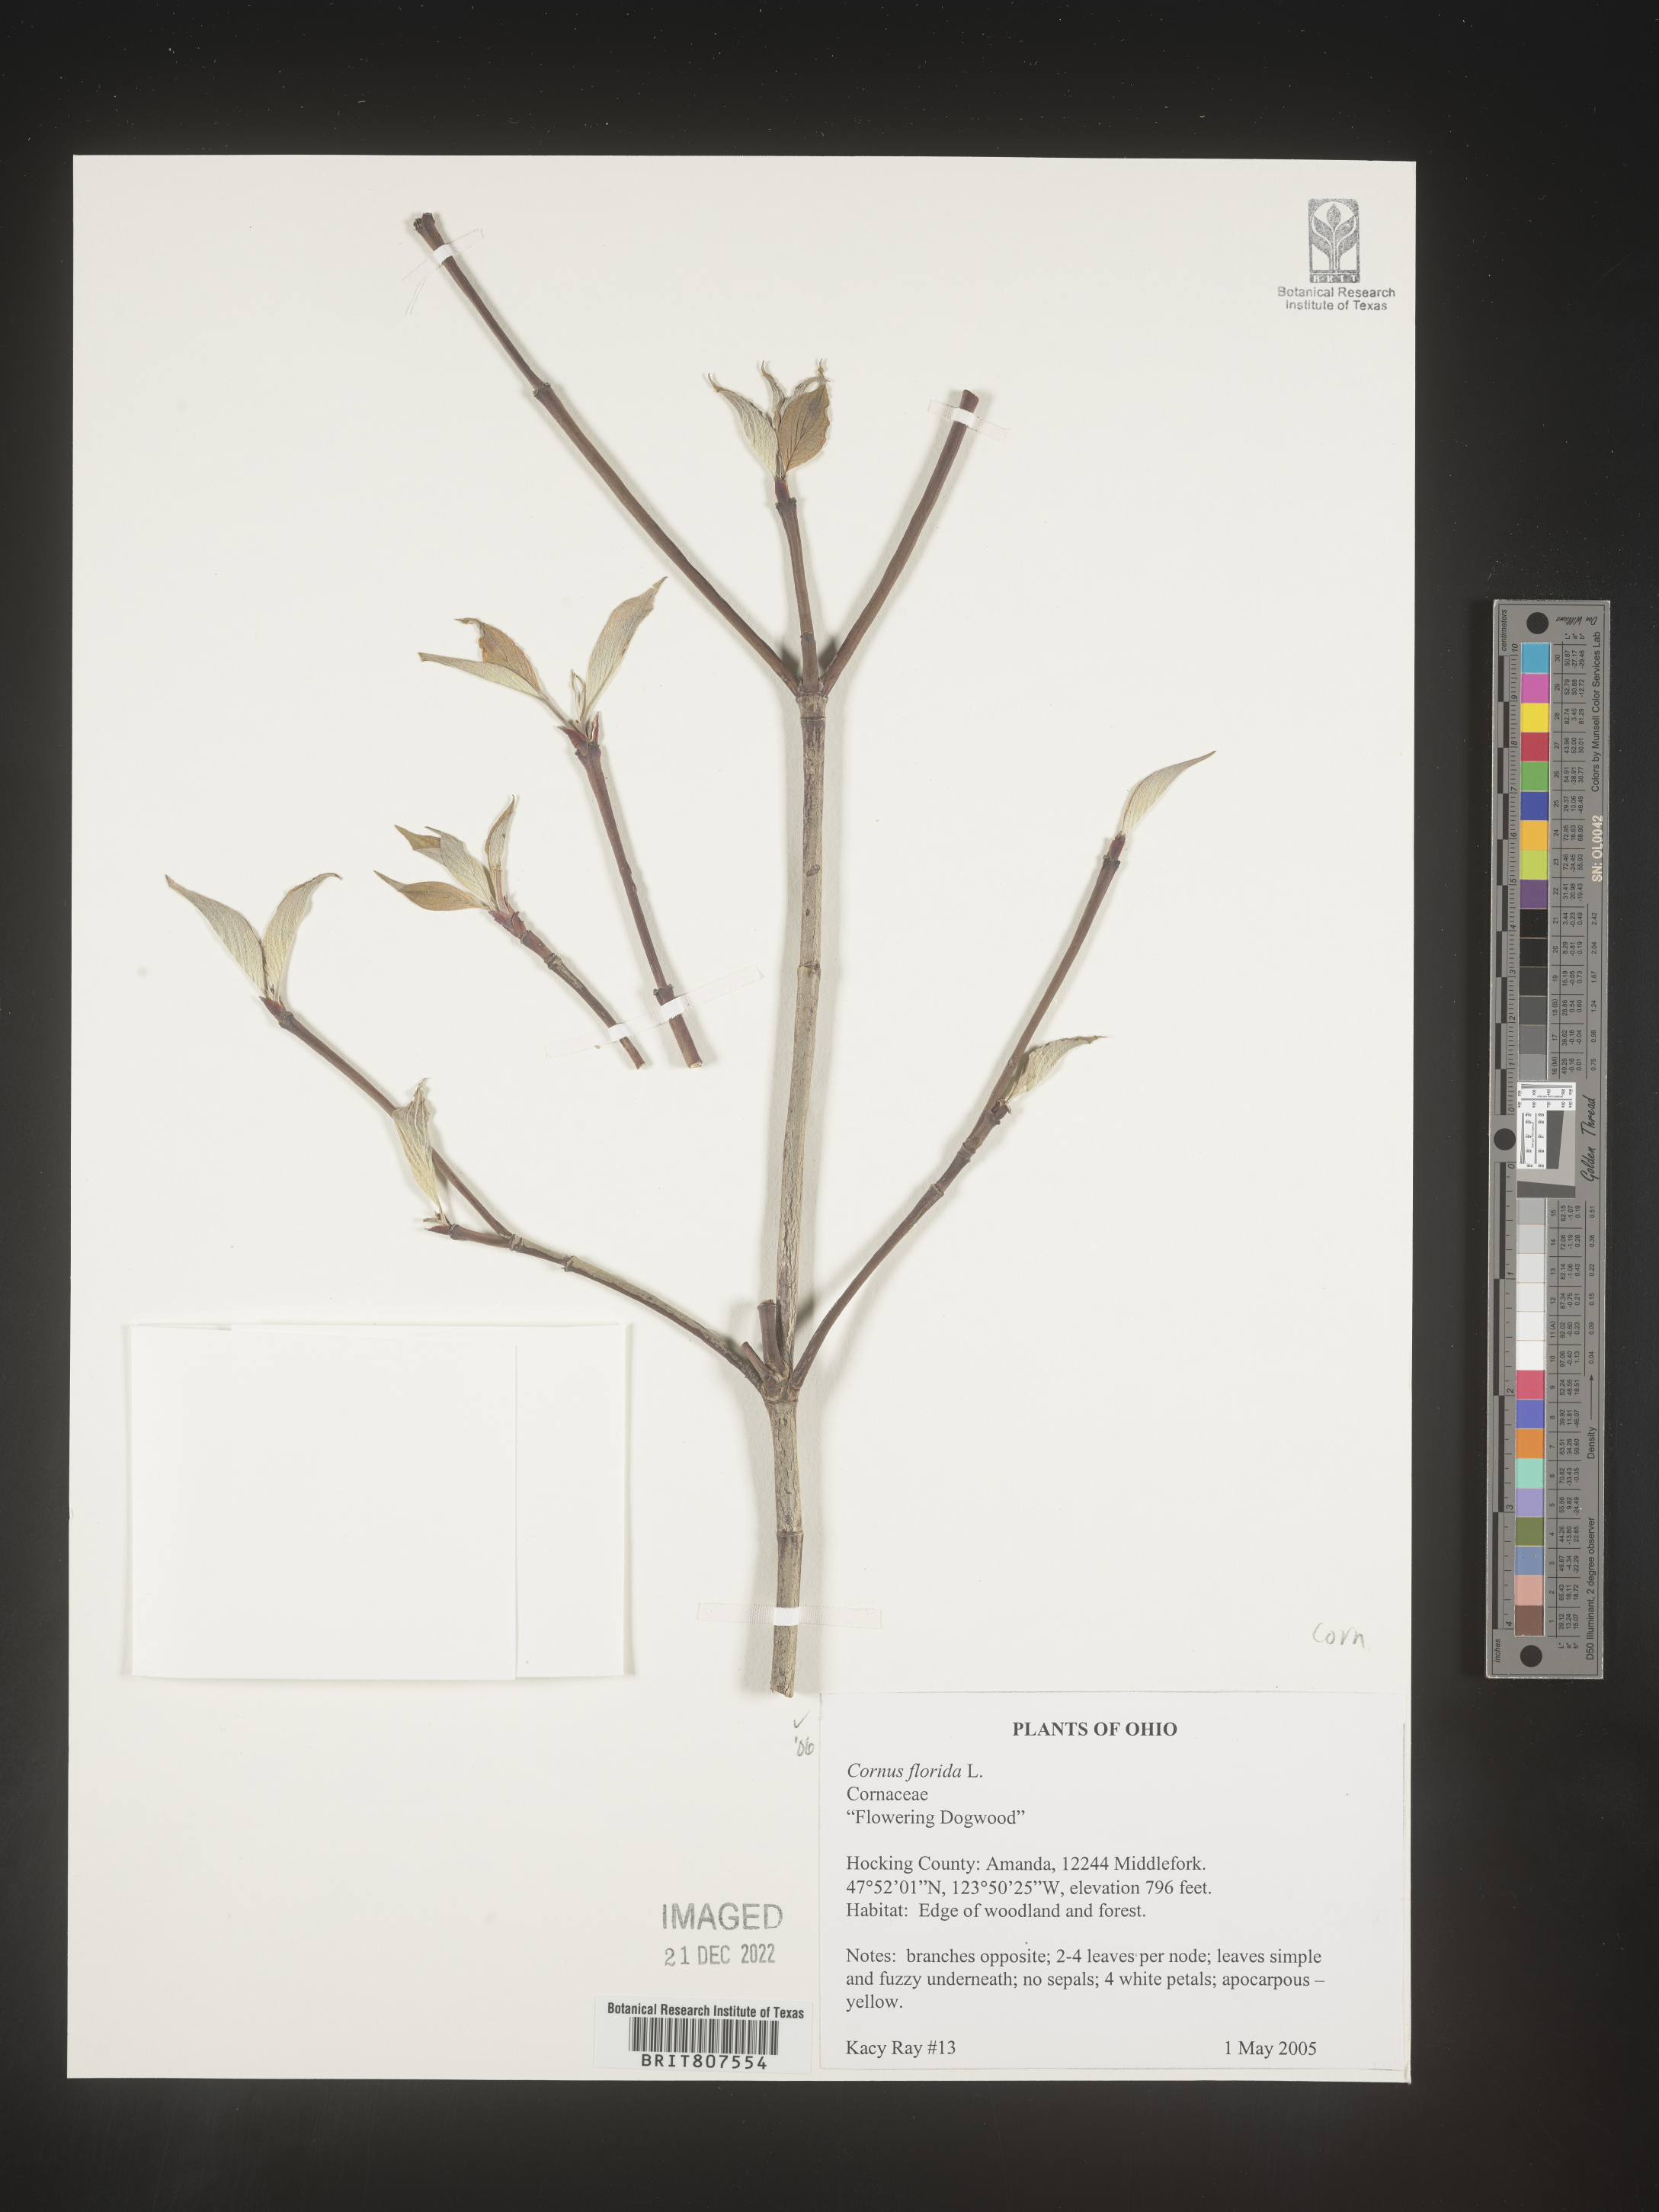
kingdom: Plantae
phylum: Tracheophyta
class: Magnoliopsida
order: Cornales
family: Cornaceae
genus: Cornus
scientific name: Cornus florida
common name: Flowering dogwood
